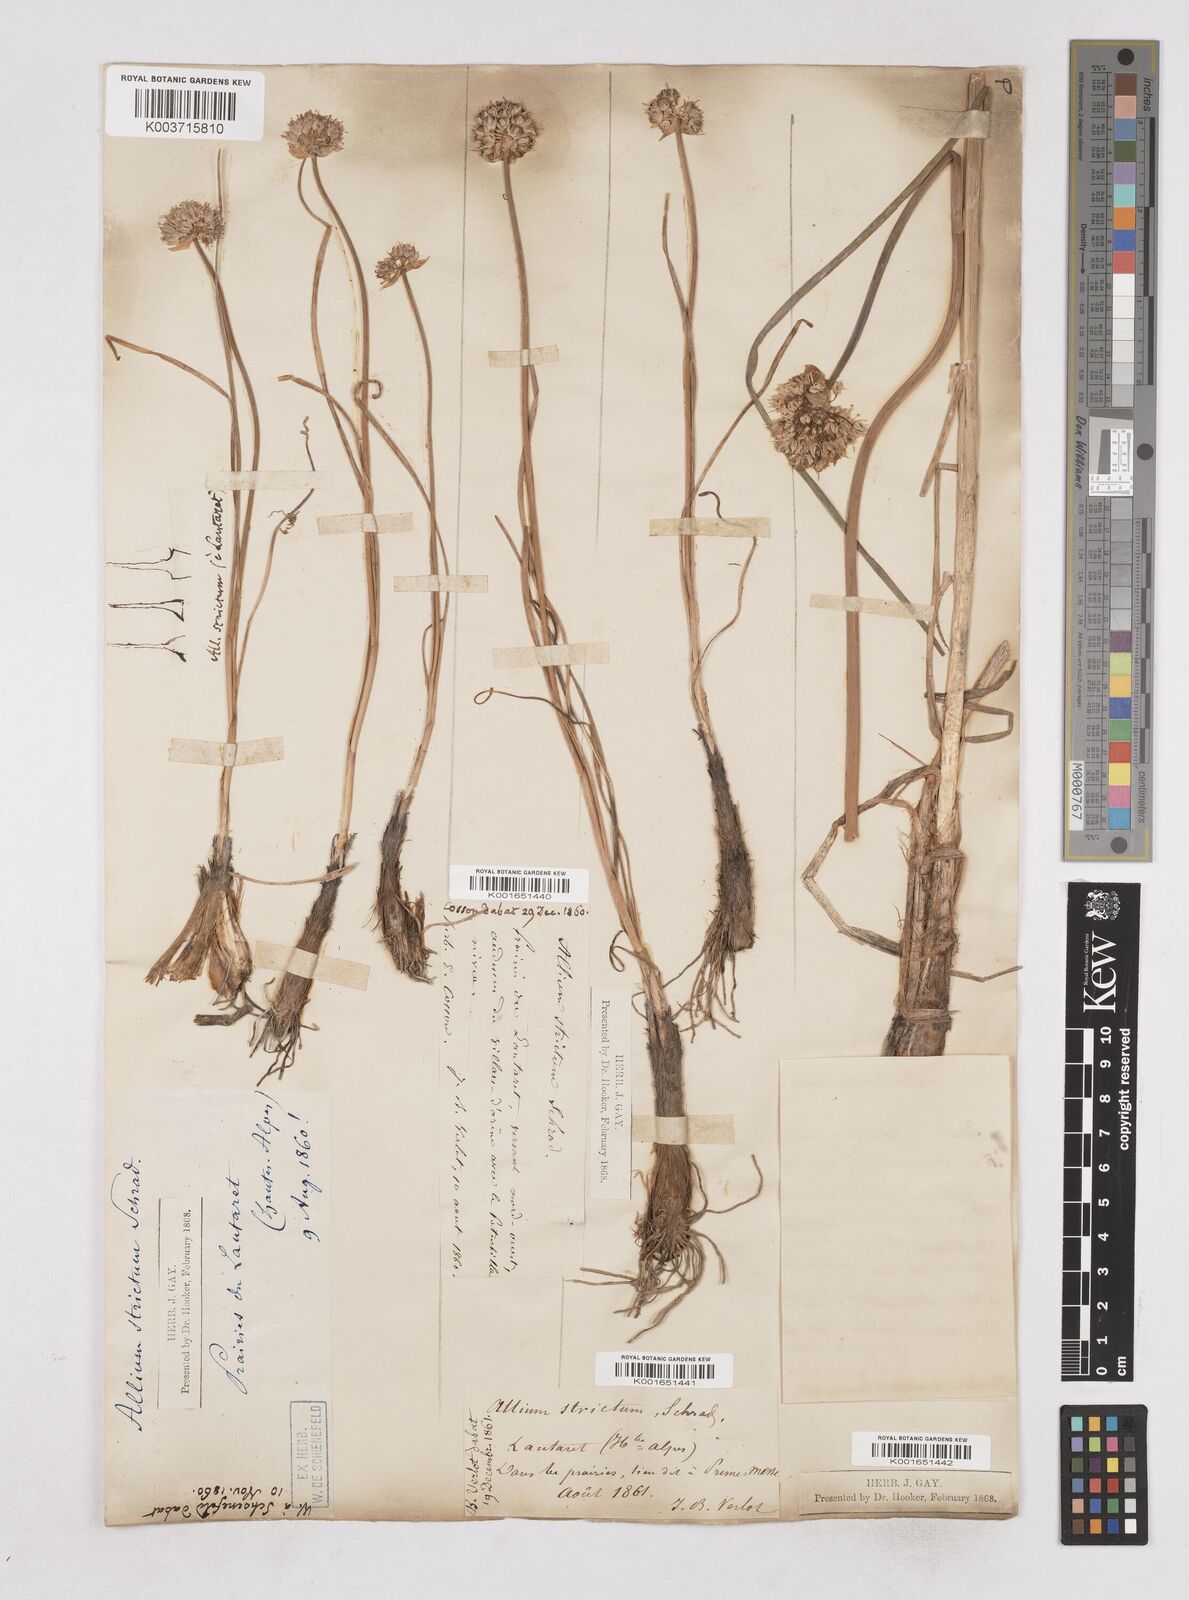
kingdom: Plantae
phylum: Tracheophyta
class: Liliopsida
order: Asparagales
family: Amaryllidaceae
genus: Allium
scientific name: Allium strictum
